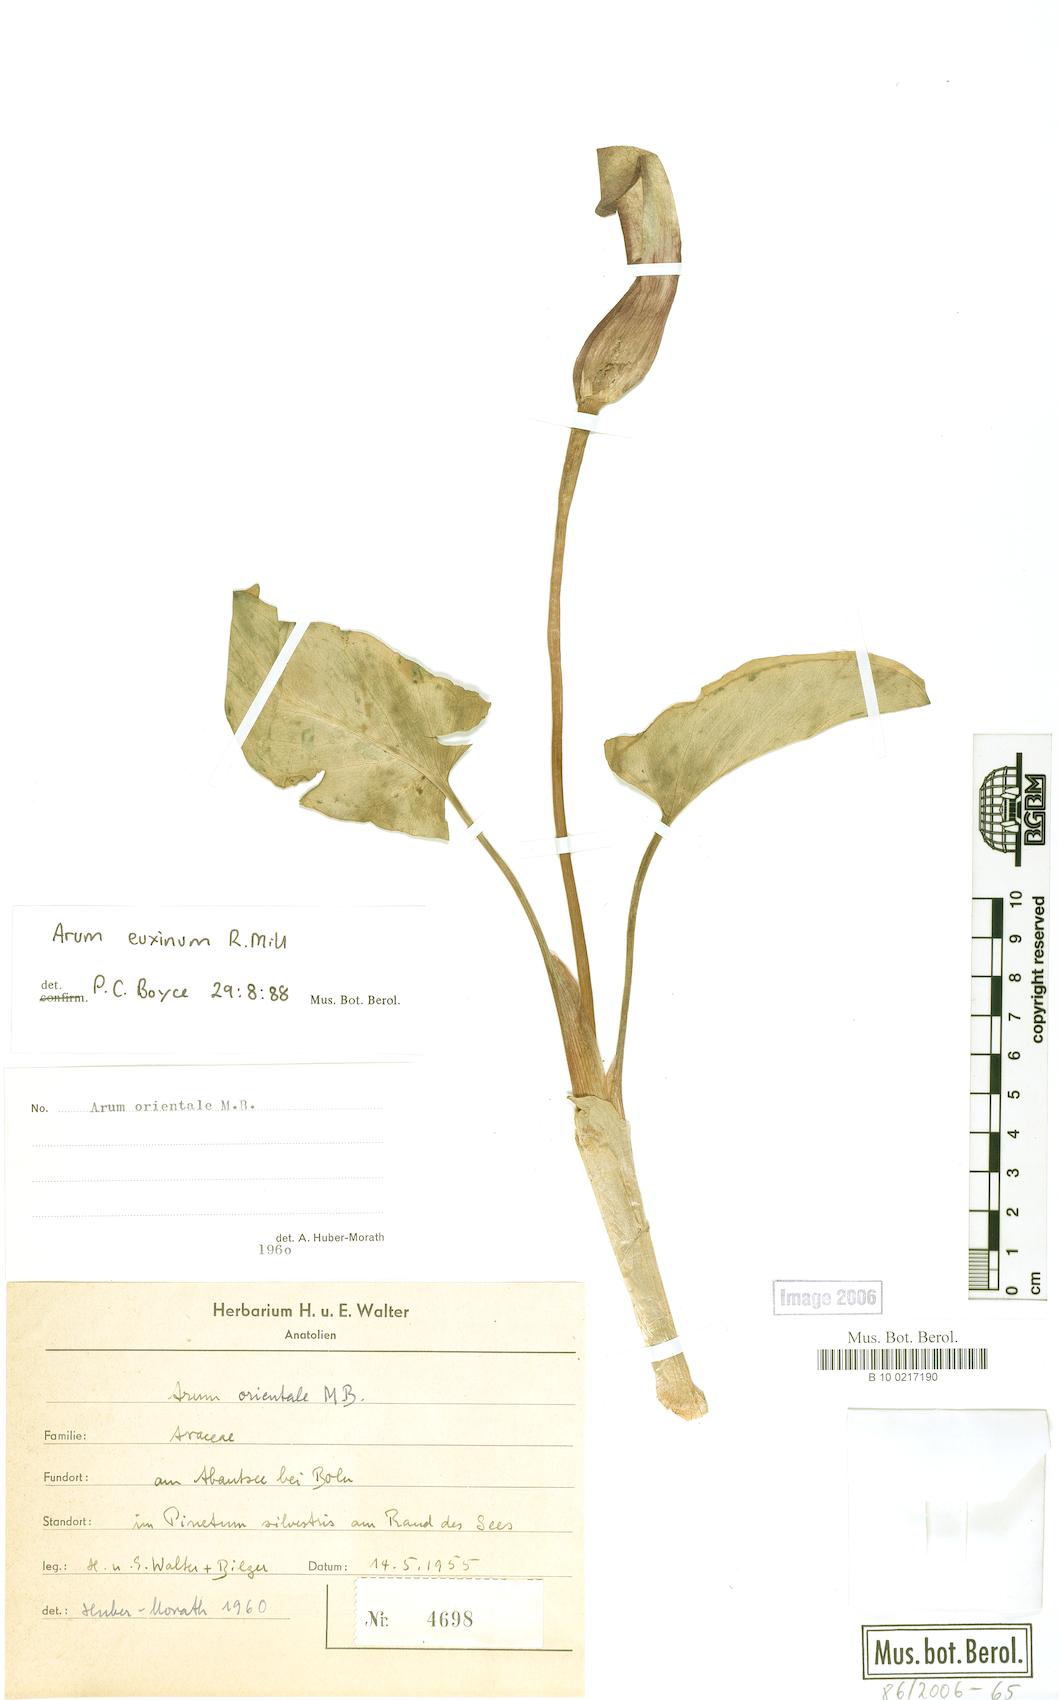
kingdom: Plantae
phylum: Tracheophyta
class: Liliopsida
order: Alismatales
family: Araceae
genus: Arum
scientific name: Arum euxinum
